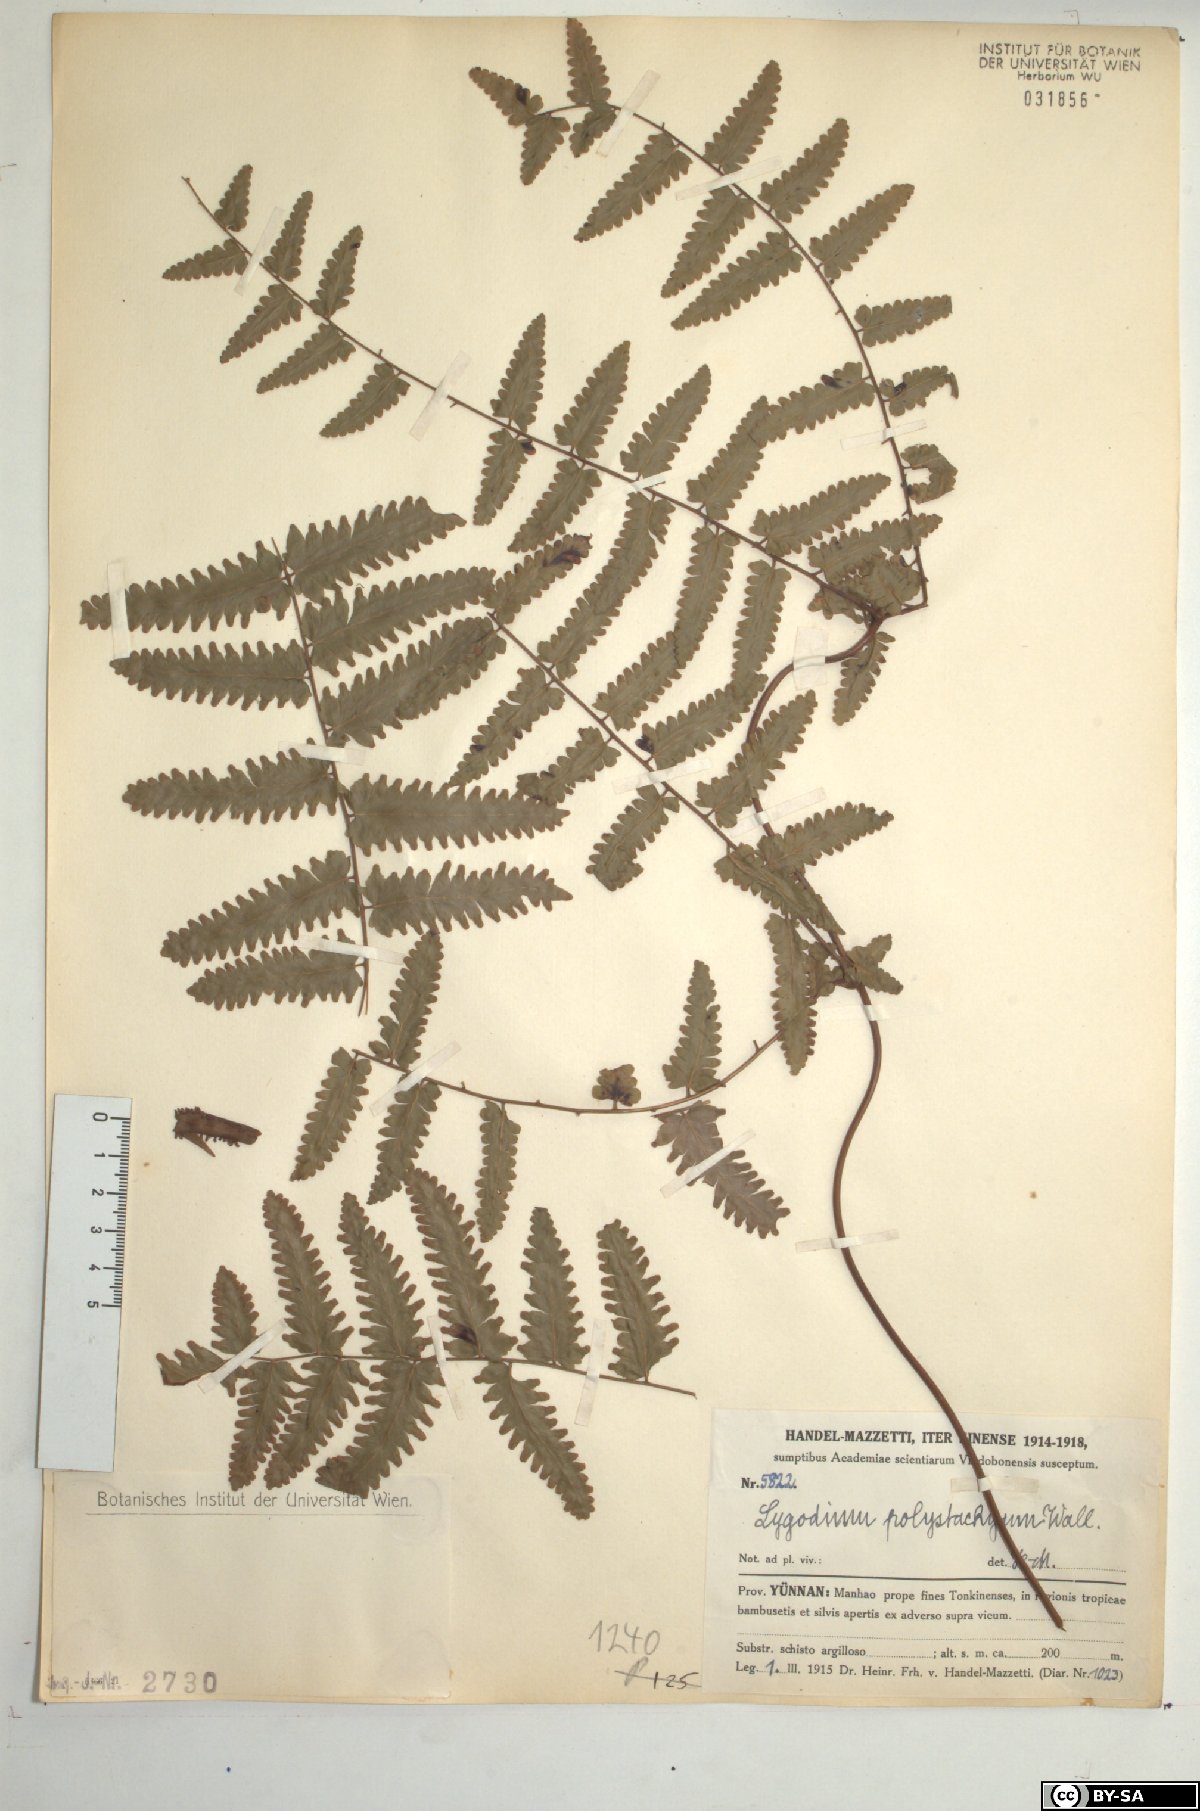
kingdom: Plantae
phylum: Tracheophyta
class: Polypodiopsida
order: Schizaeales
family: Lygodiaceae
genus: Lygodium
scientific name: Lygodium polystachyum
